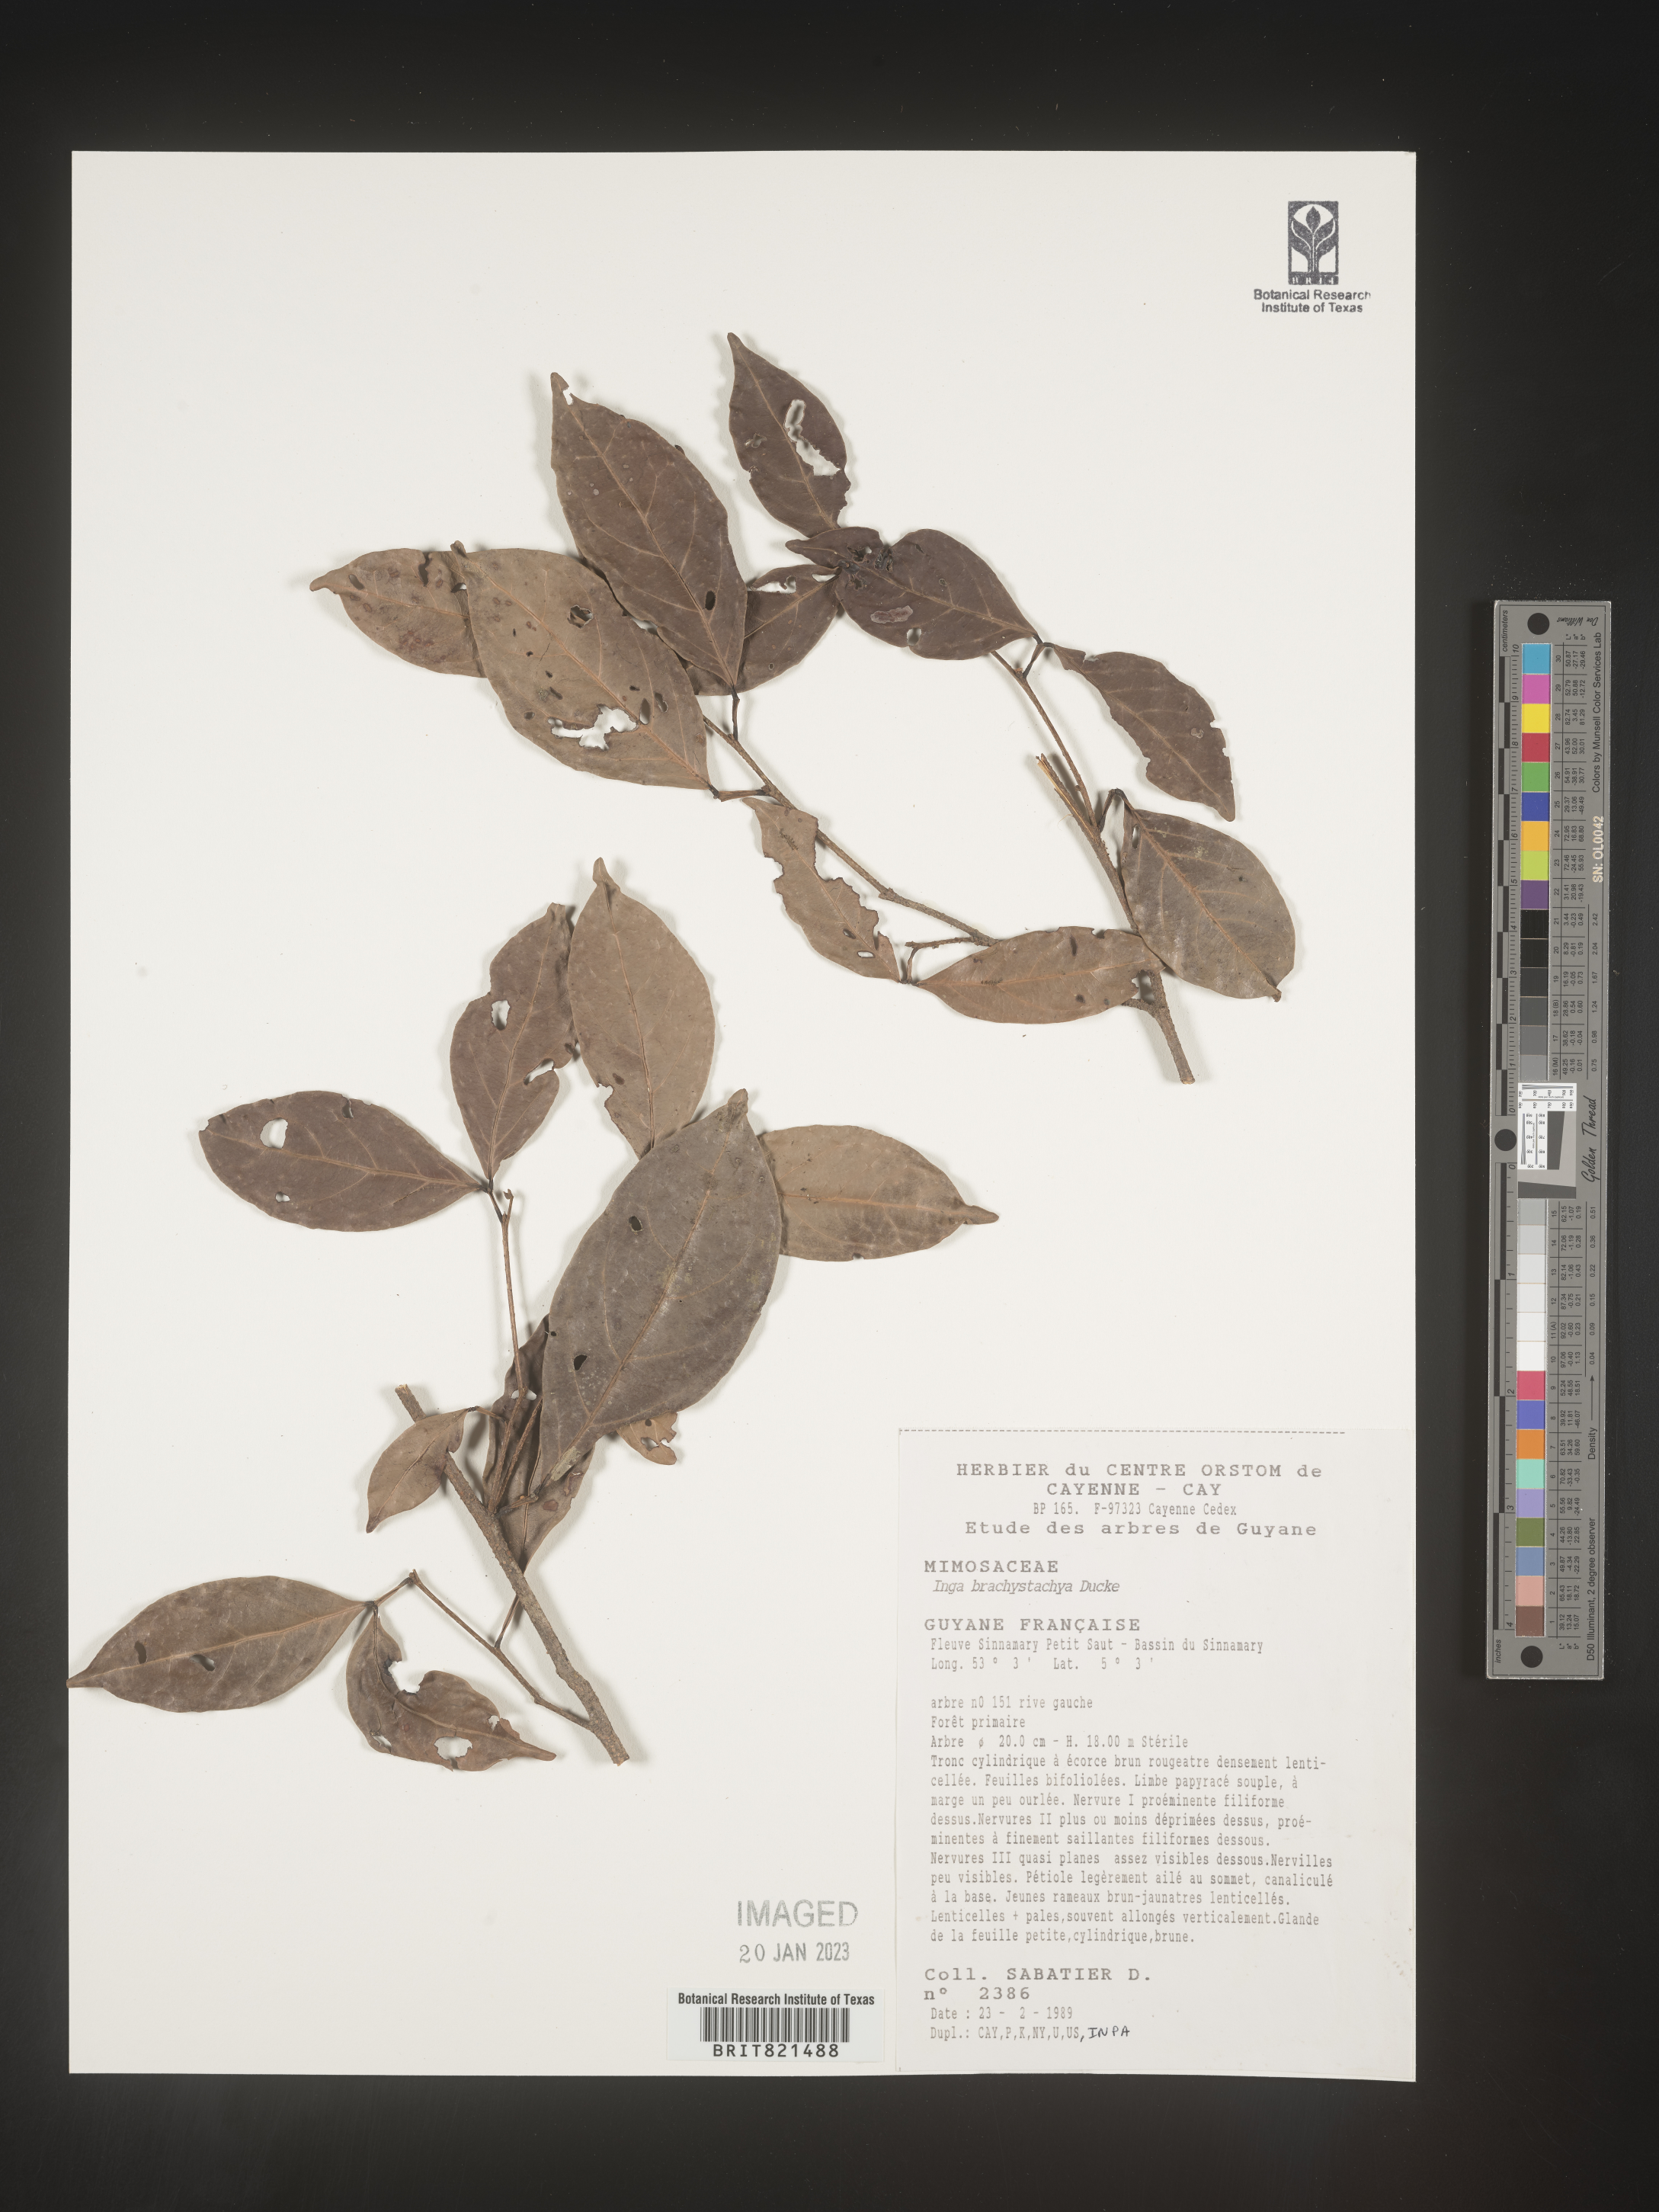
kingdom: Plantae
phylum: Tracheophyta
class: Magnoliopsida
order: Fabales
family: Fabaceae
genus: Inga
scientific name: Inga
